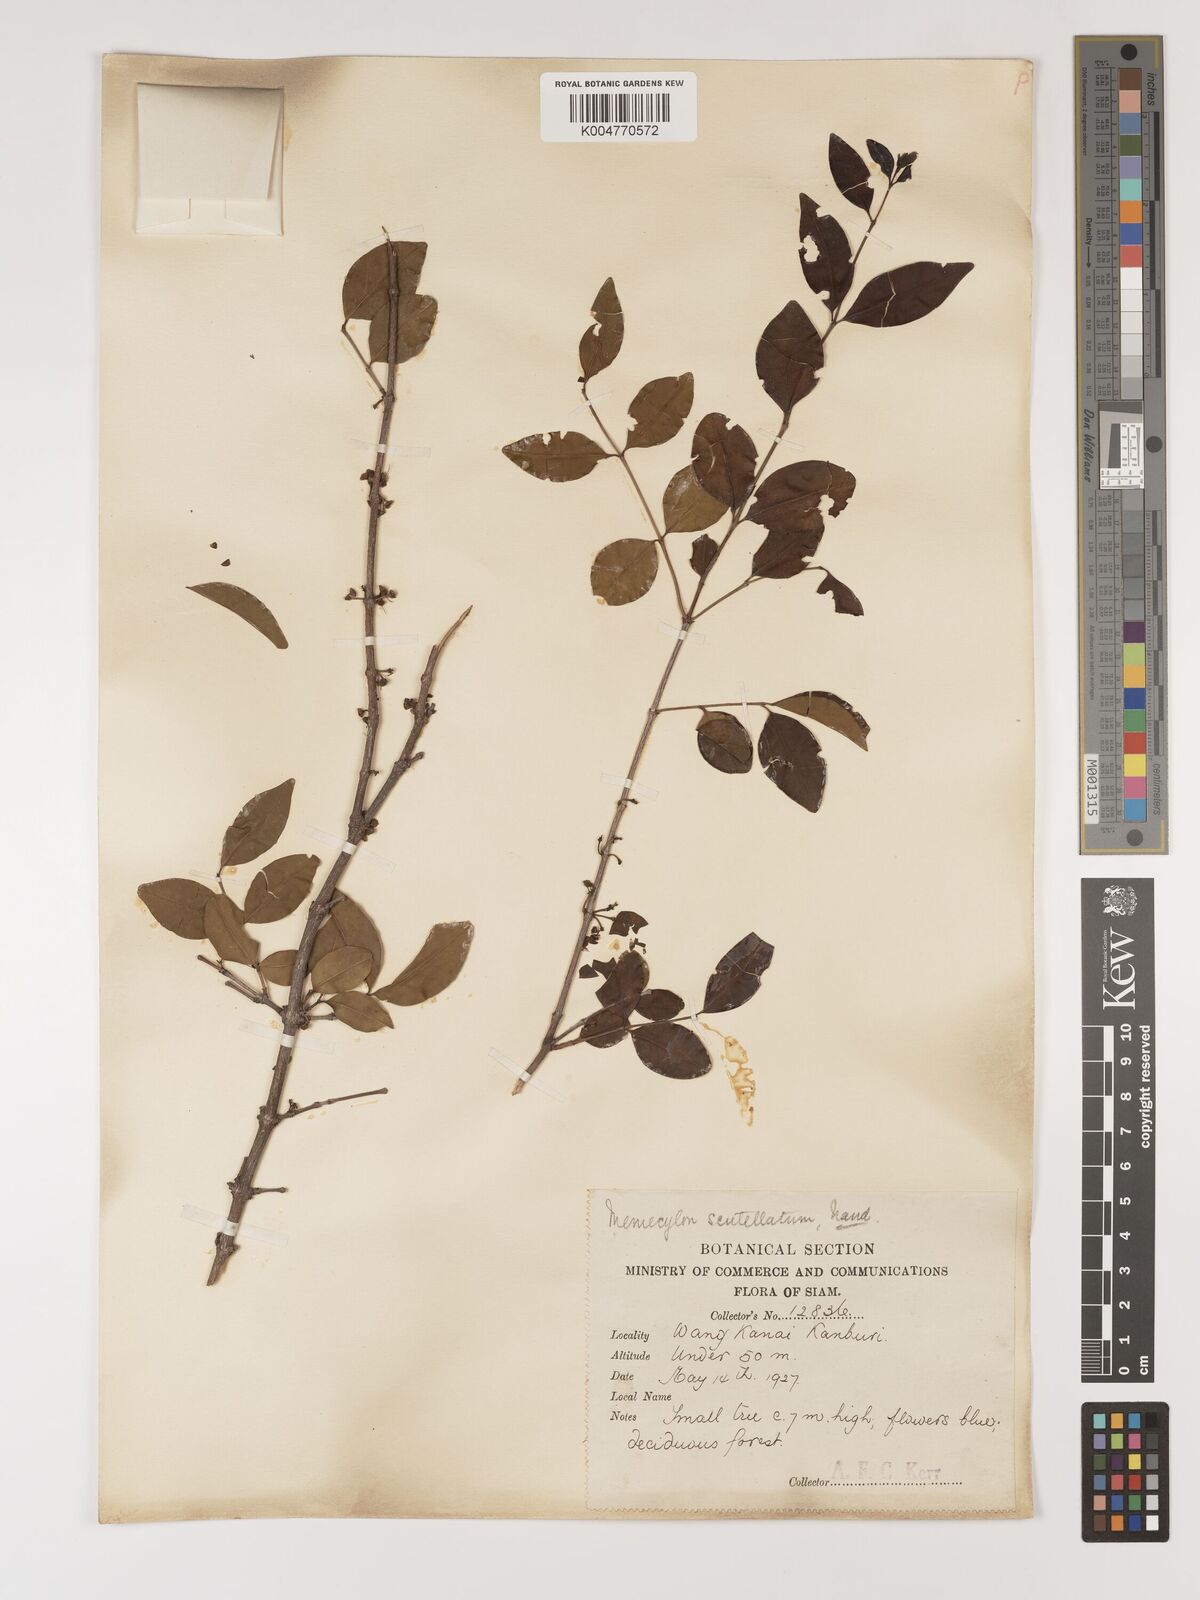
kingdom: Plantae
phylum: Tracheophyta
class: Magnoliopsida
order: Myrtales
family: Melastomataceae
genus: Memecylon
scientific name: Memecylon scutellatum
